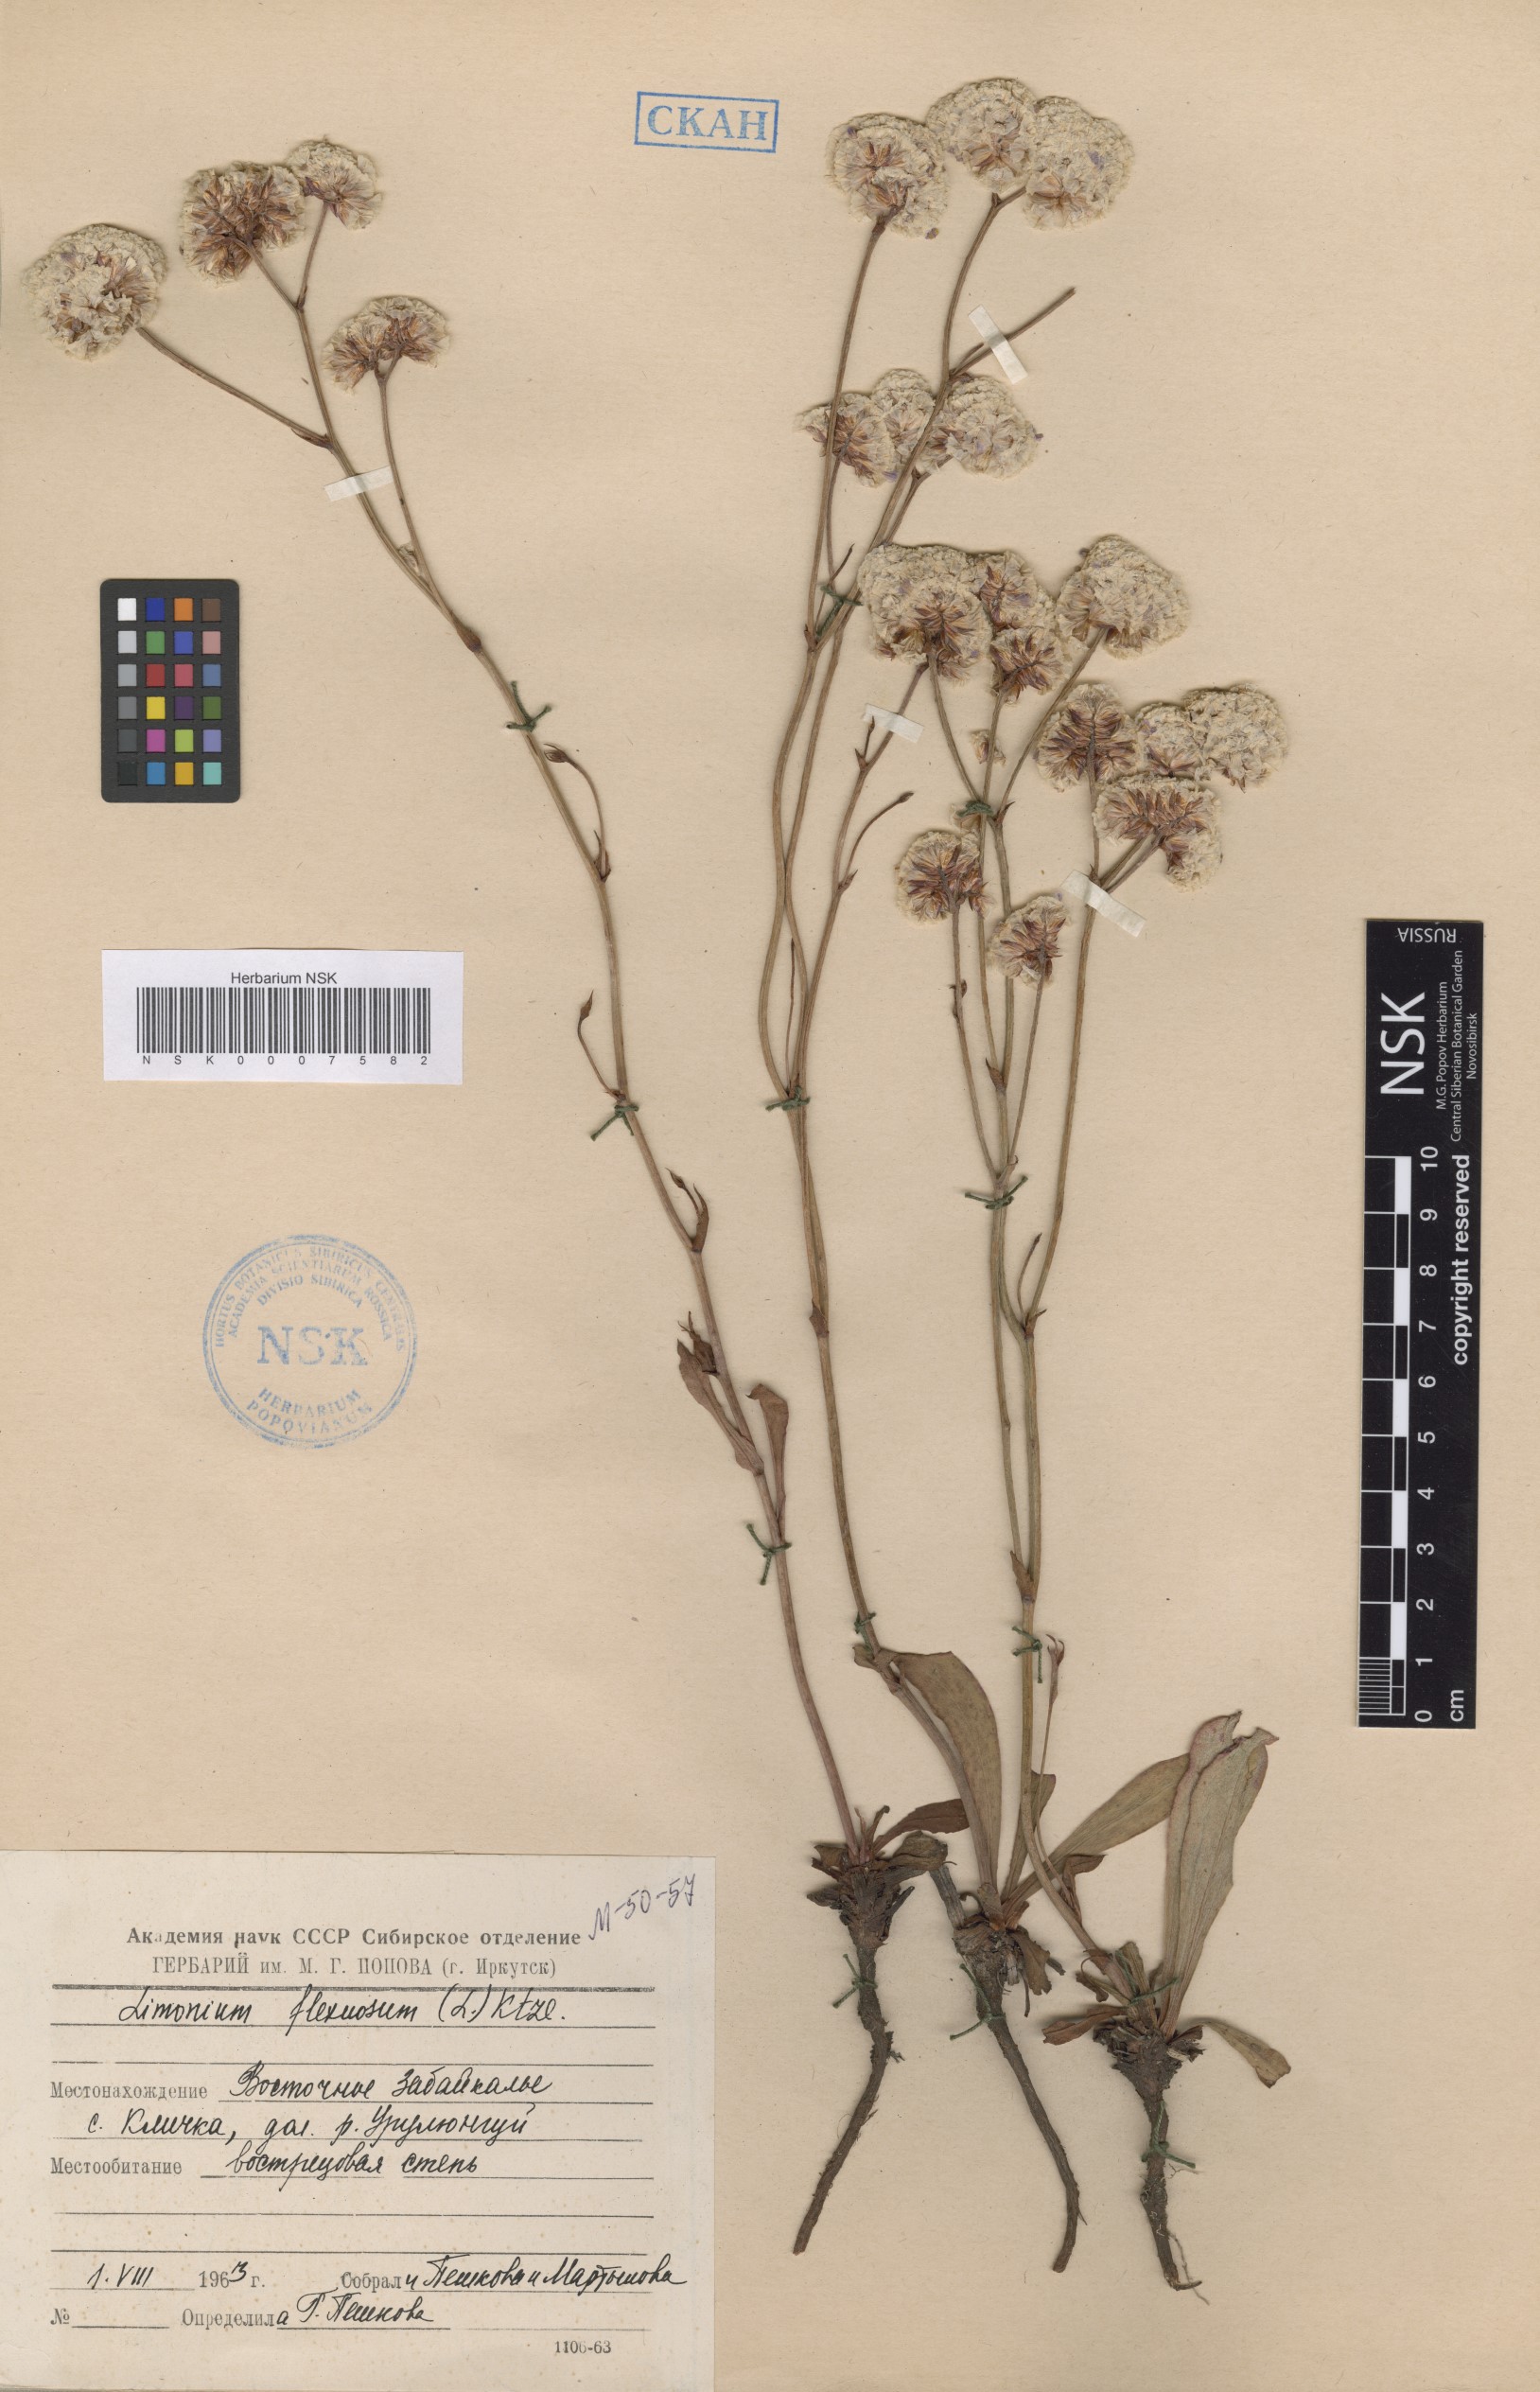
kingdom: Plantae
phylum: Tracheophyta
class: Magnoliopsida
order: Caryophyllales
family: Plumbaginaceae
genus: Limonium
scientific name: Limonium flexuosum
